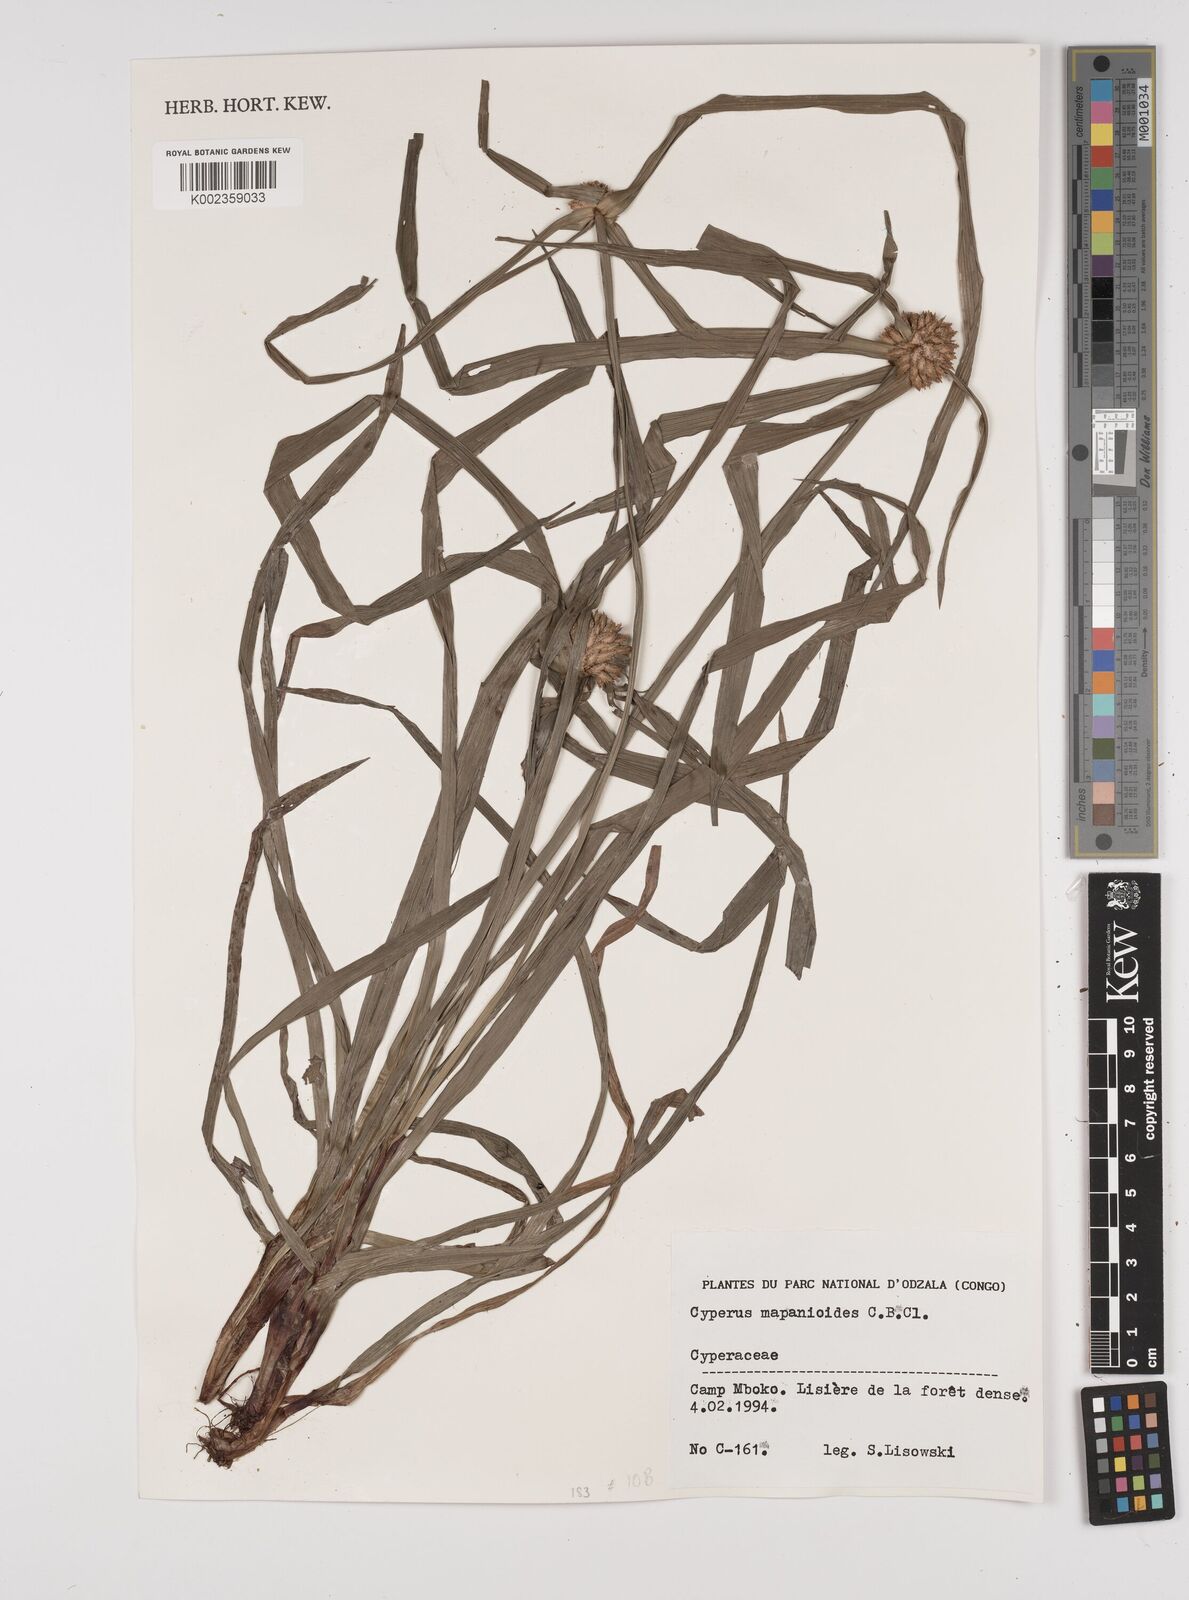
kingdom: Plantae
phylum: Tracheophyta
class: Liliopsida
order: Poales
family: Cyperaceae
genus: Cyperus
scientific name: Cyperus mapanioides
